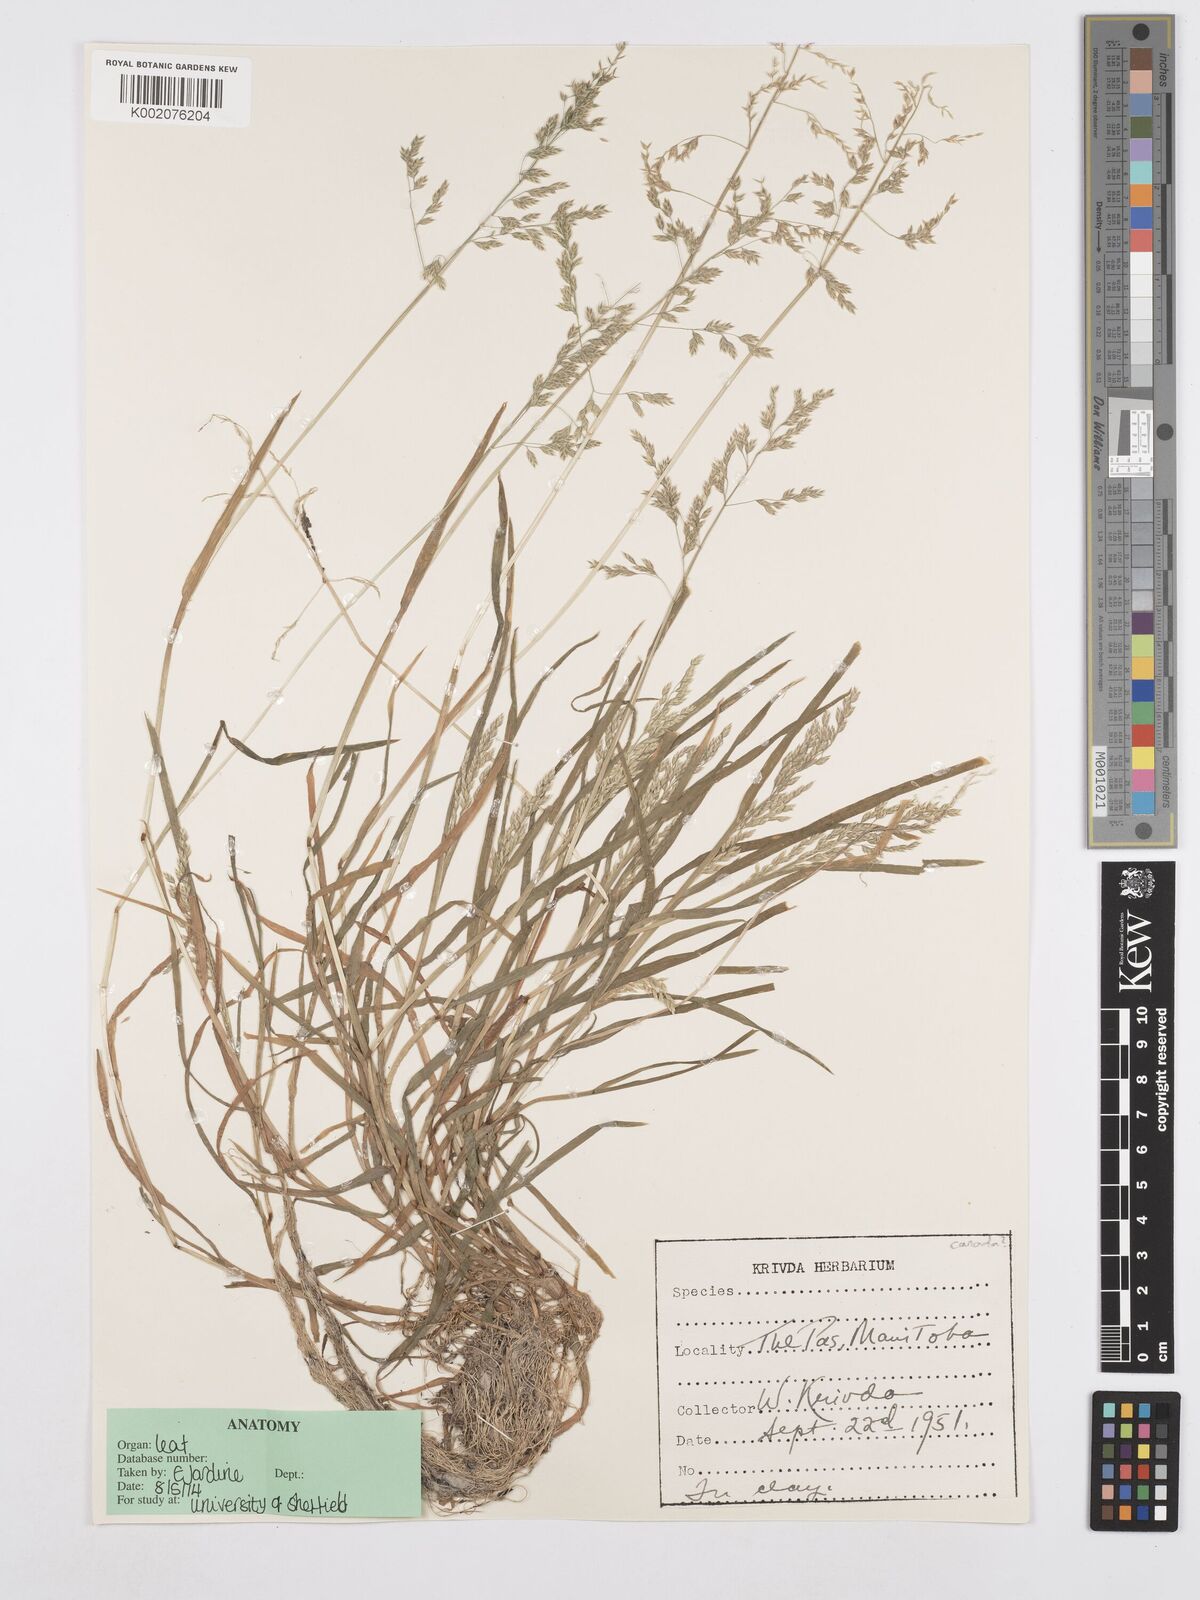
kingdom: Plantae
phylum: Tracheophyta
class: Liliopsida
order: Poales
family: Poaceae
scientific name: Poaceae
